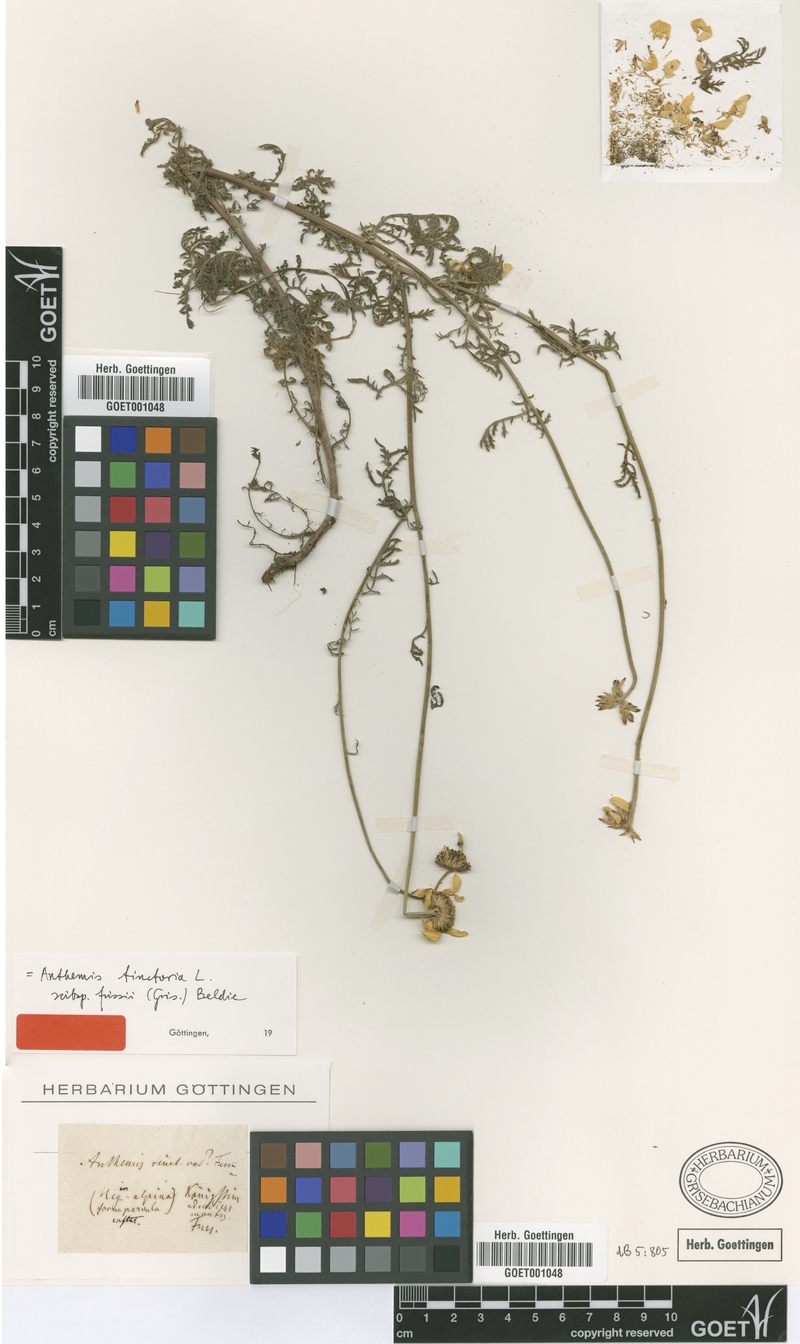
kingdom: Plantae
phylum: Tracheophyta
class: Magnoliopsida
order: Asterales
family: Asteraceae
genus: Cota
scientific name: Cota tinctoria
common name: Golden chamomile
